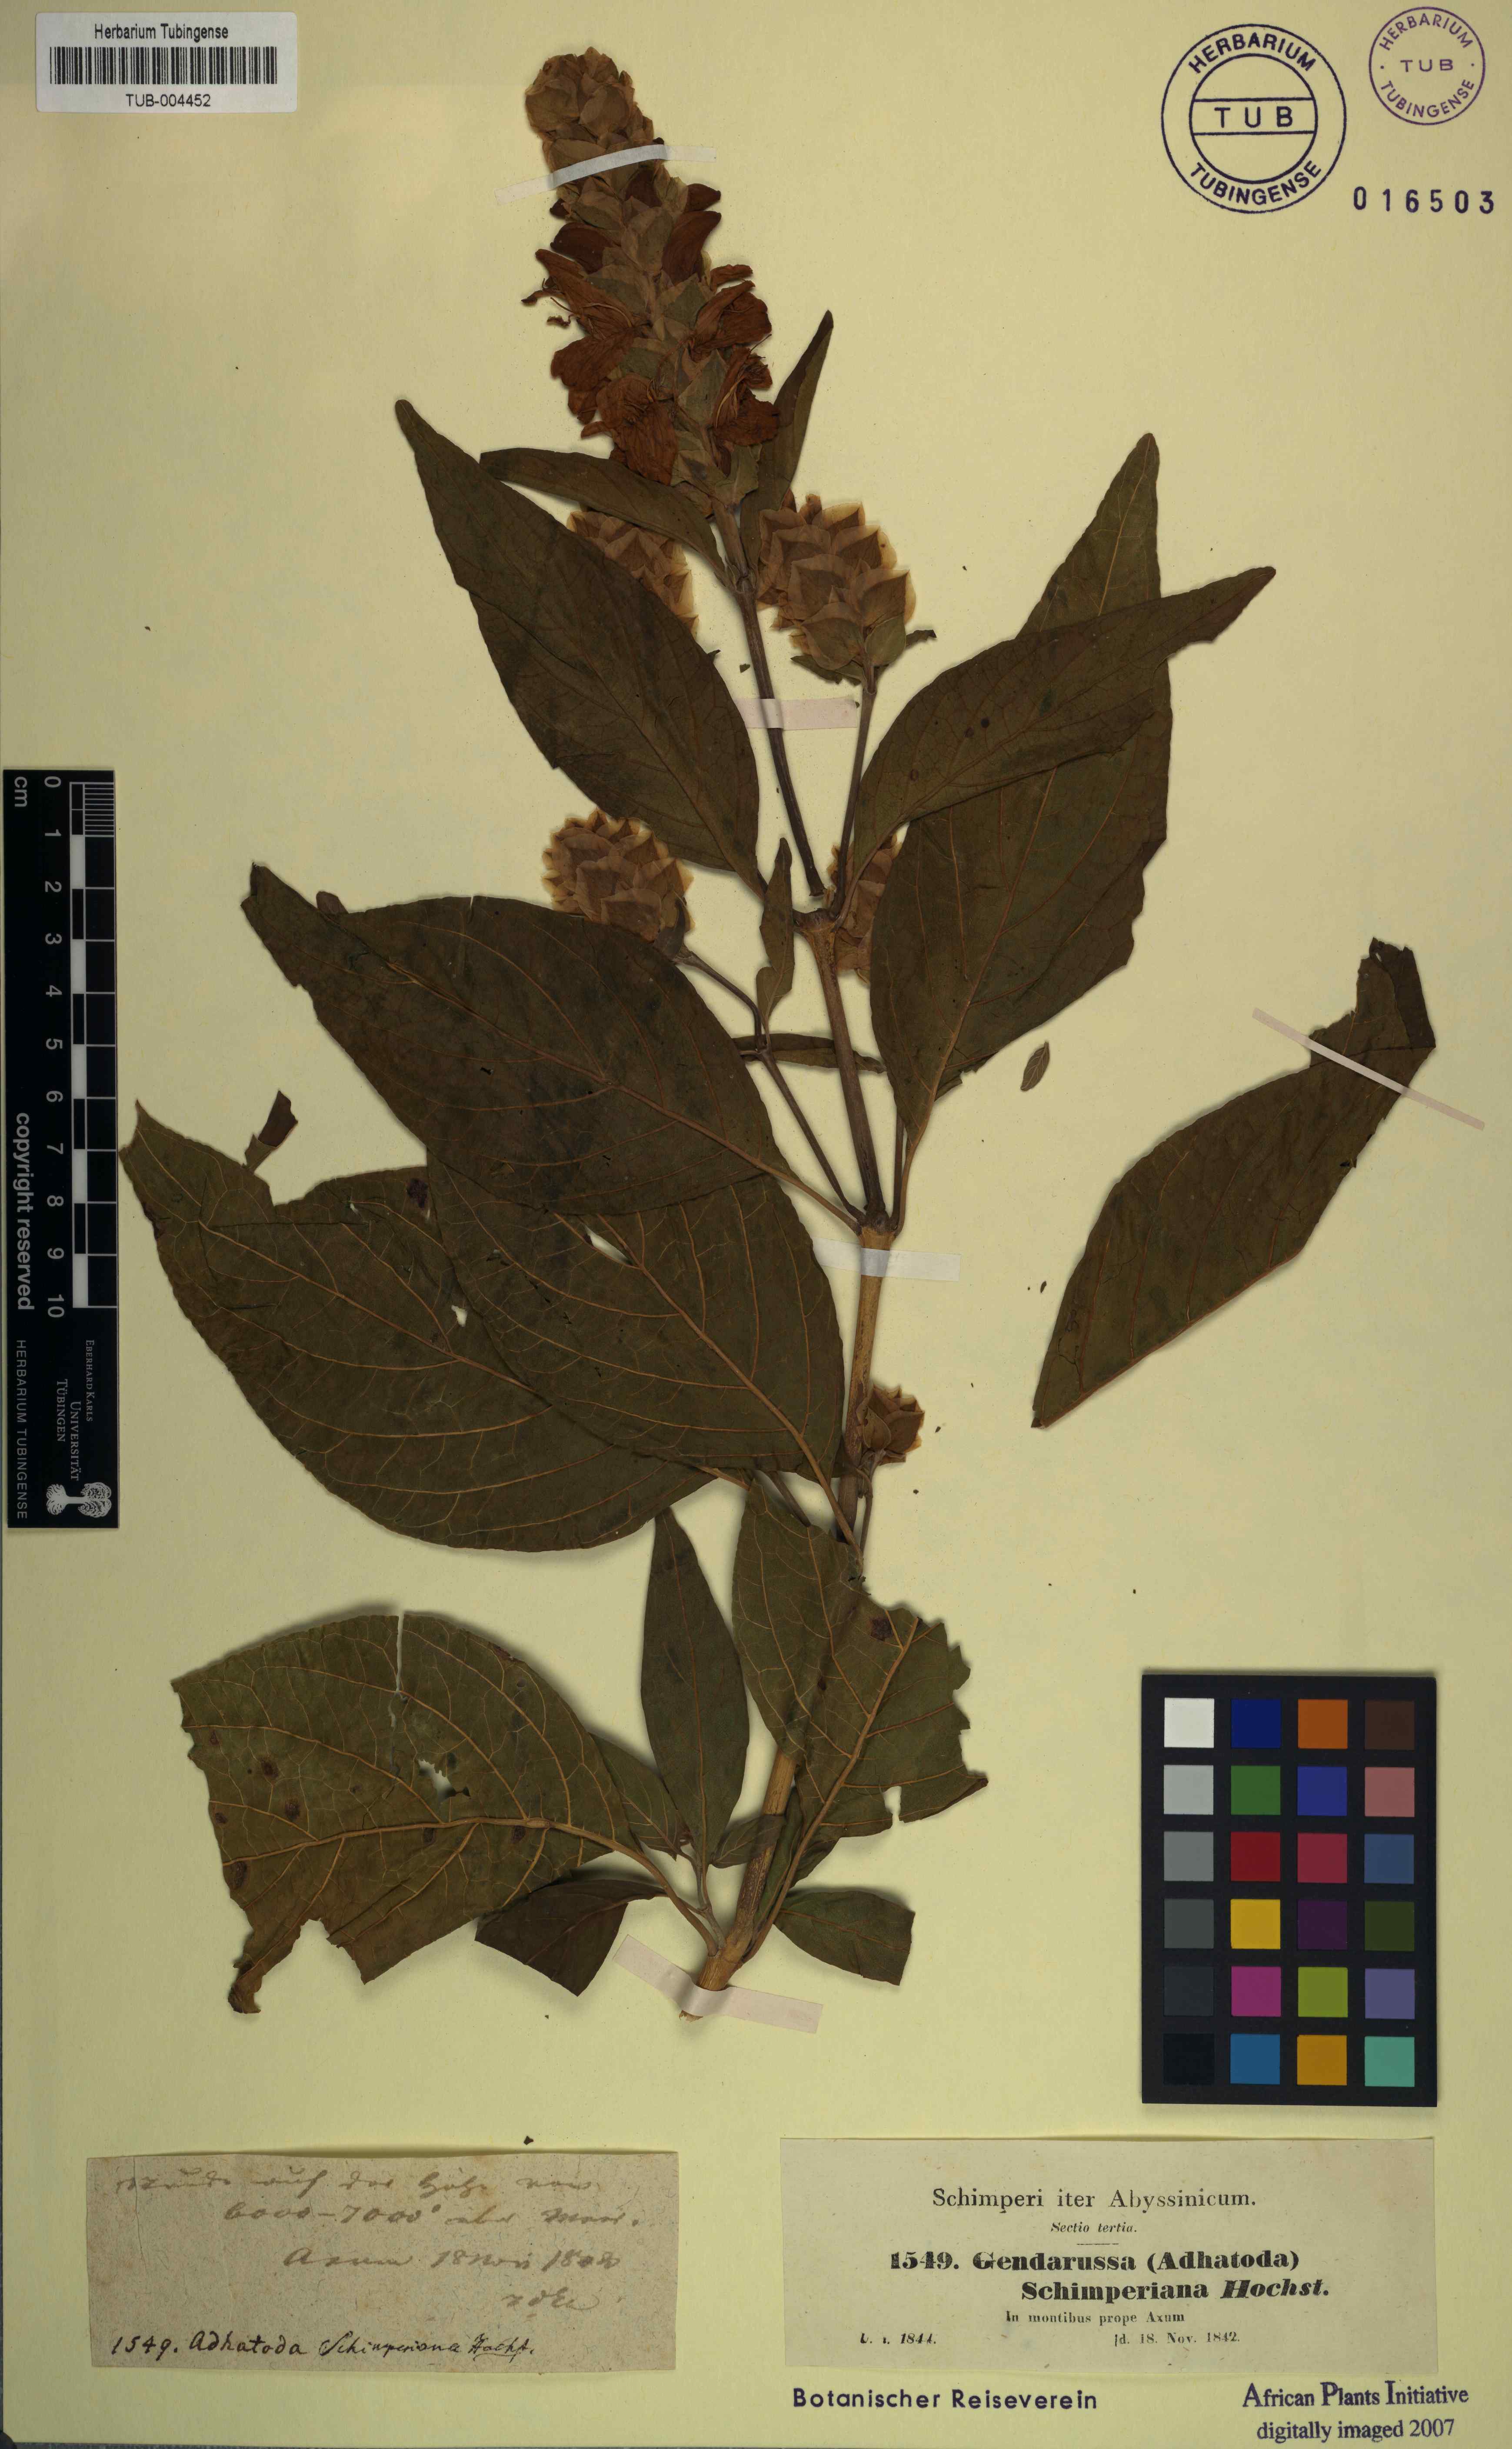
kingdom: Plantae
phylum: Tracheophyta
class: Magnoliopsida
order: Lamiales
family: Acanthaceae
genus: Justicia
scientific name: Justicia schimperiana
